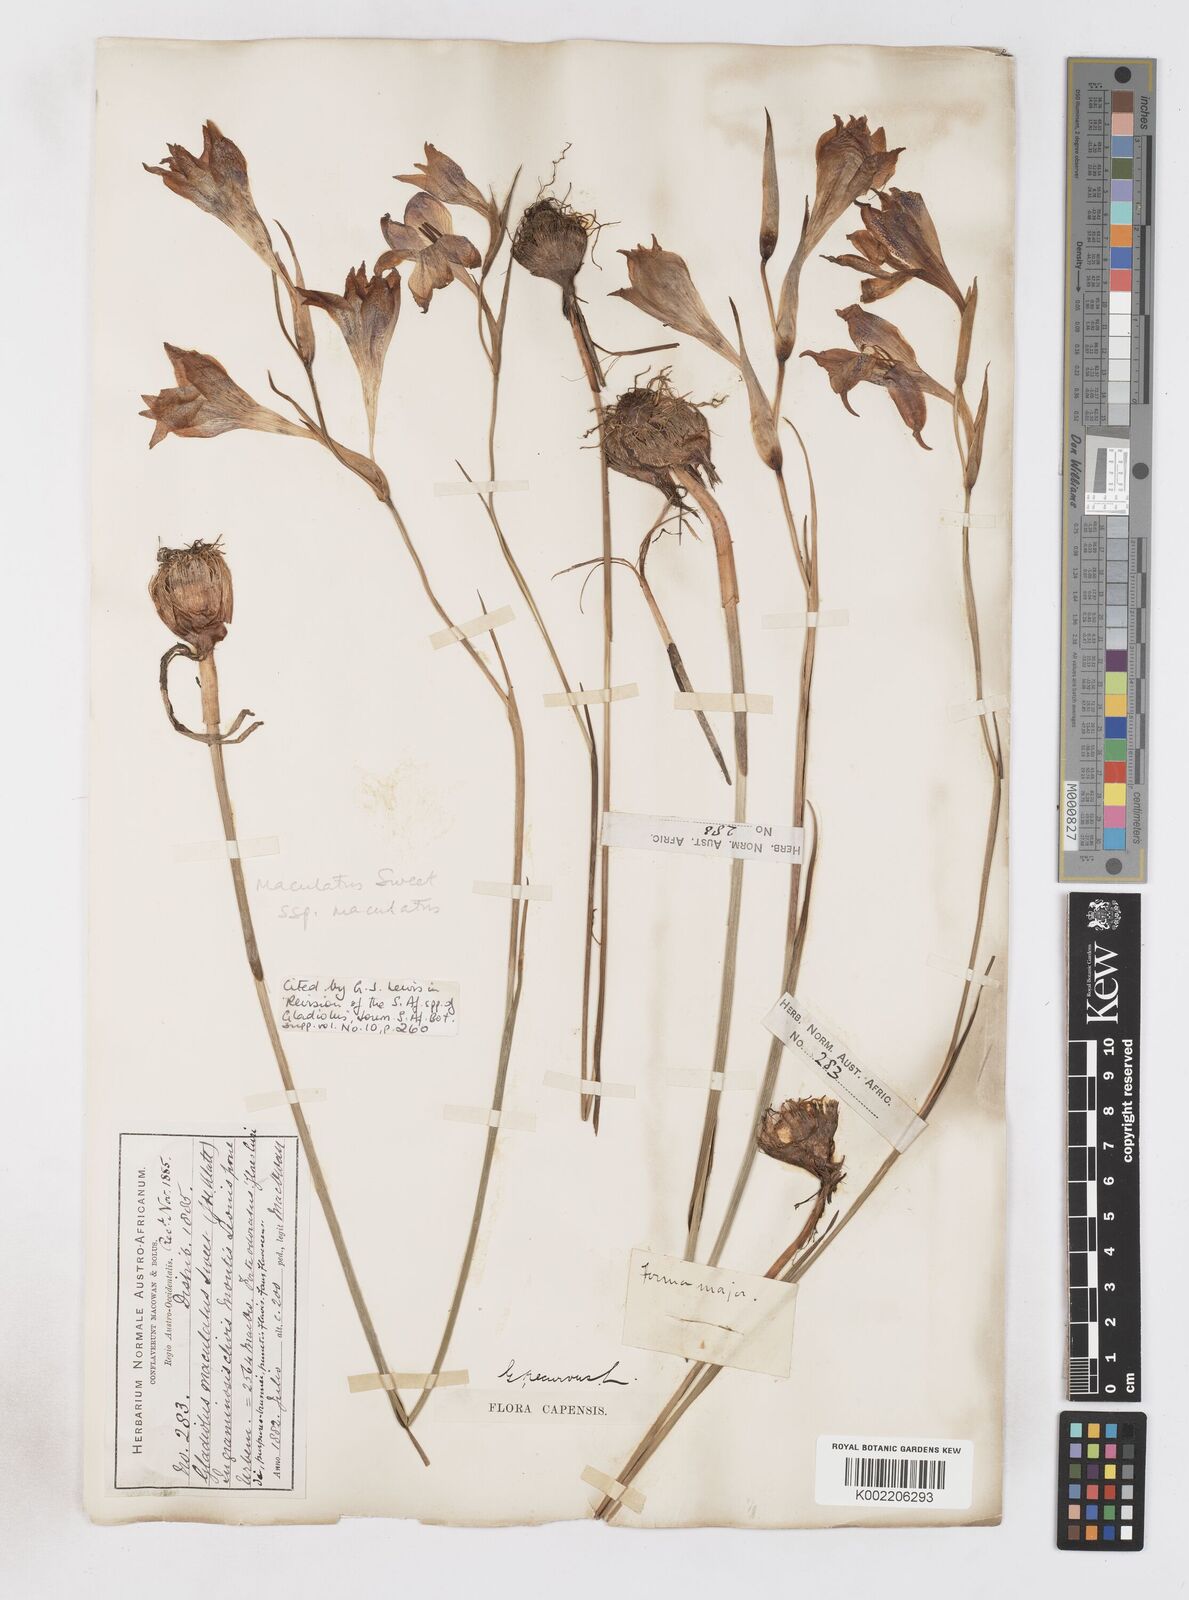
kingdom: Plantae
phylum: Tracheophyta
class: Liliopsida
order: Asparagales
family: Iridaceae
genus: Gladiolus
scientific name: Gladiolus maculatus
